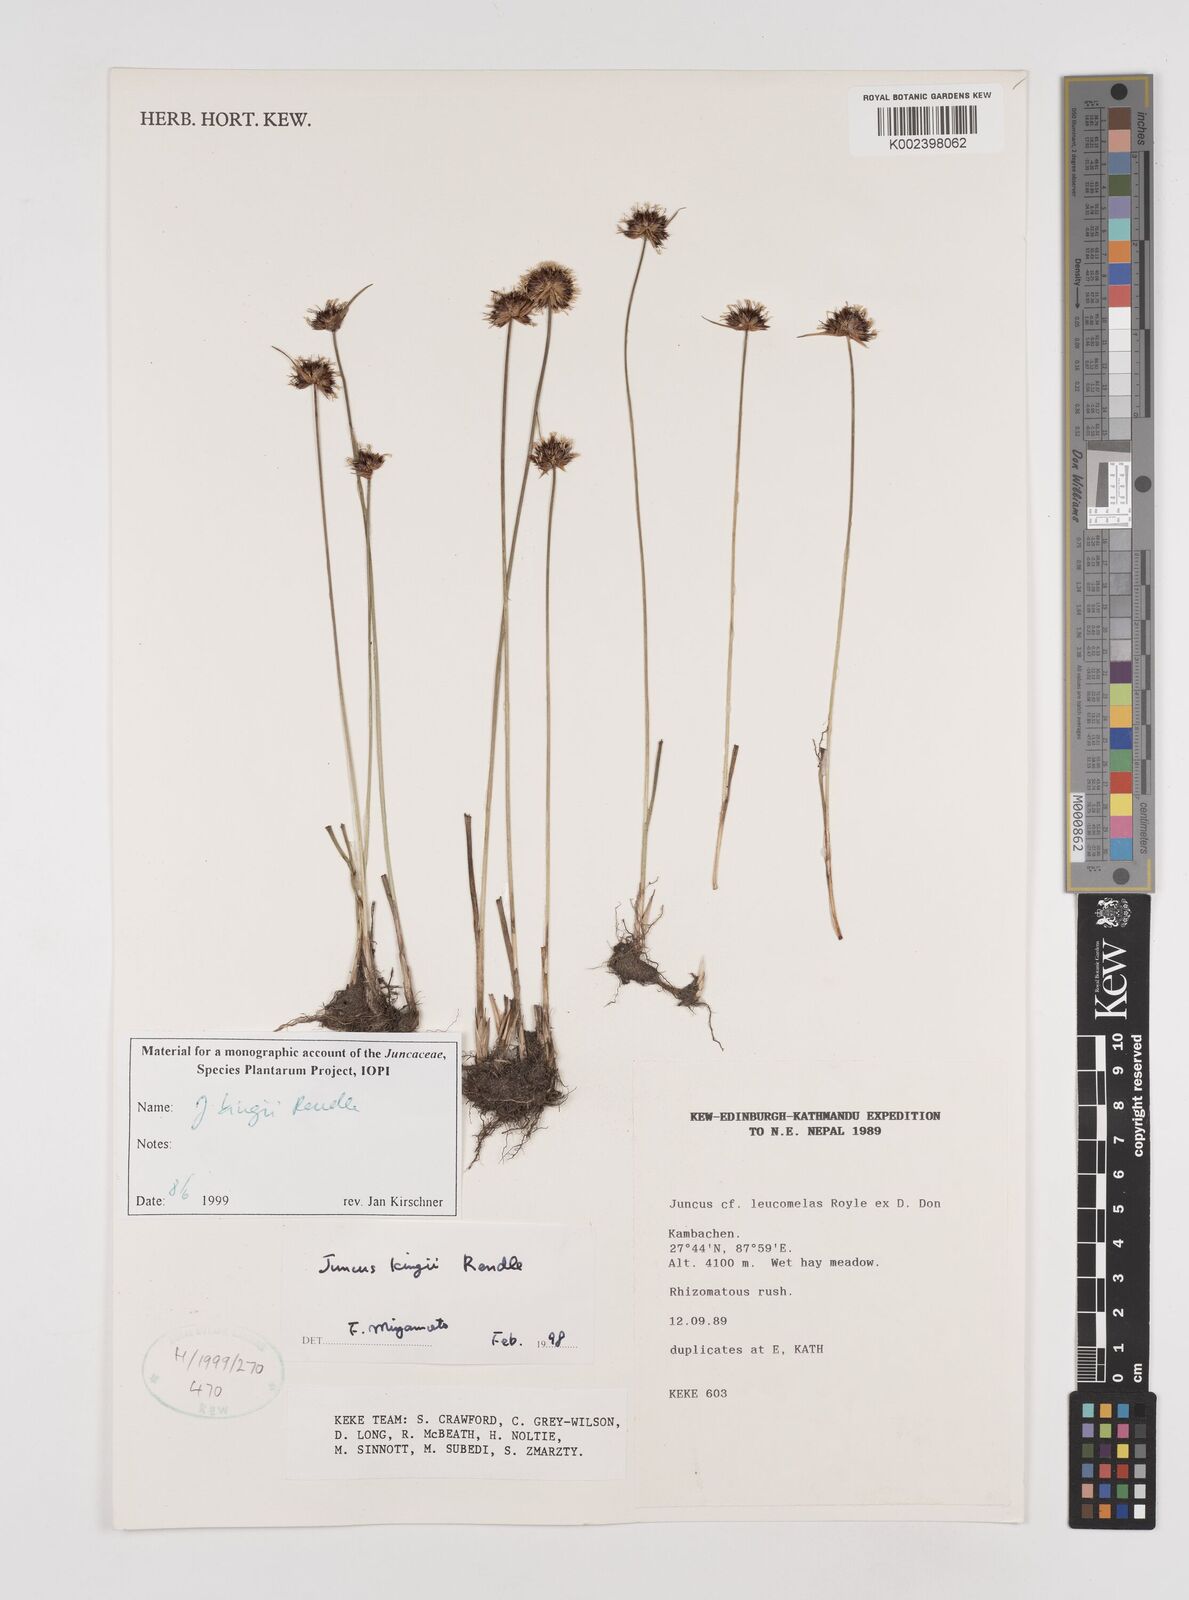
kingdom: Plantae
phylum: Tracheophyta
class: Liliopsida
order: Poales
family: Juncaceae
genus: Juncus
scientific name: Juncus kingii
